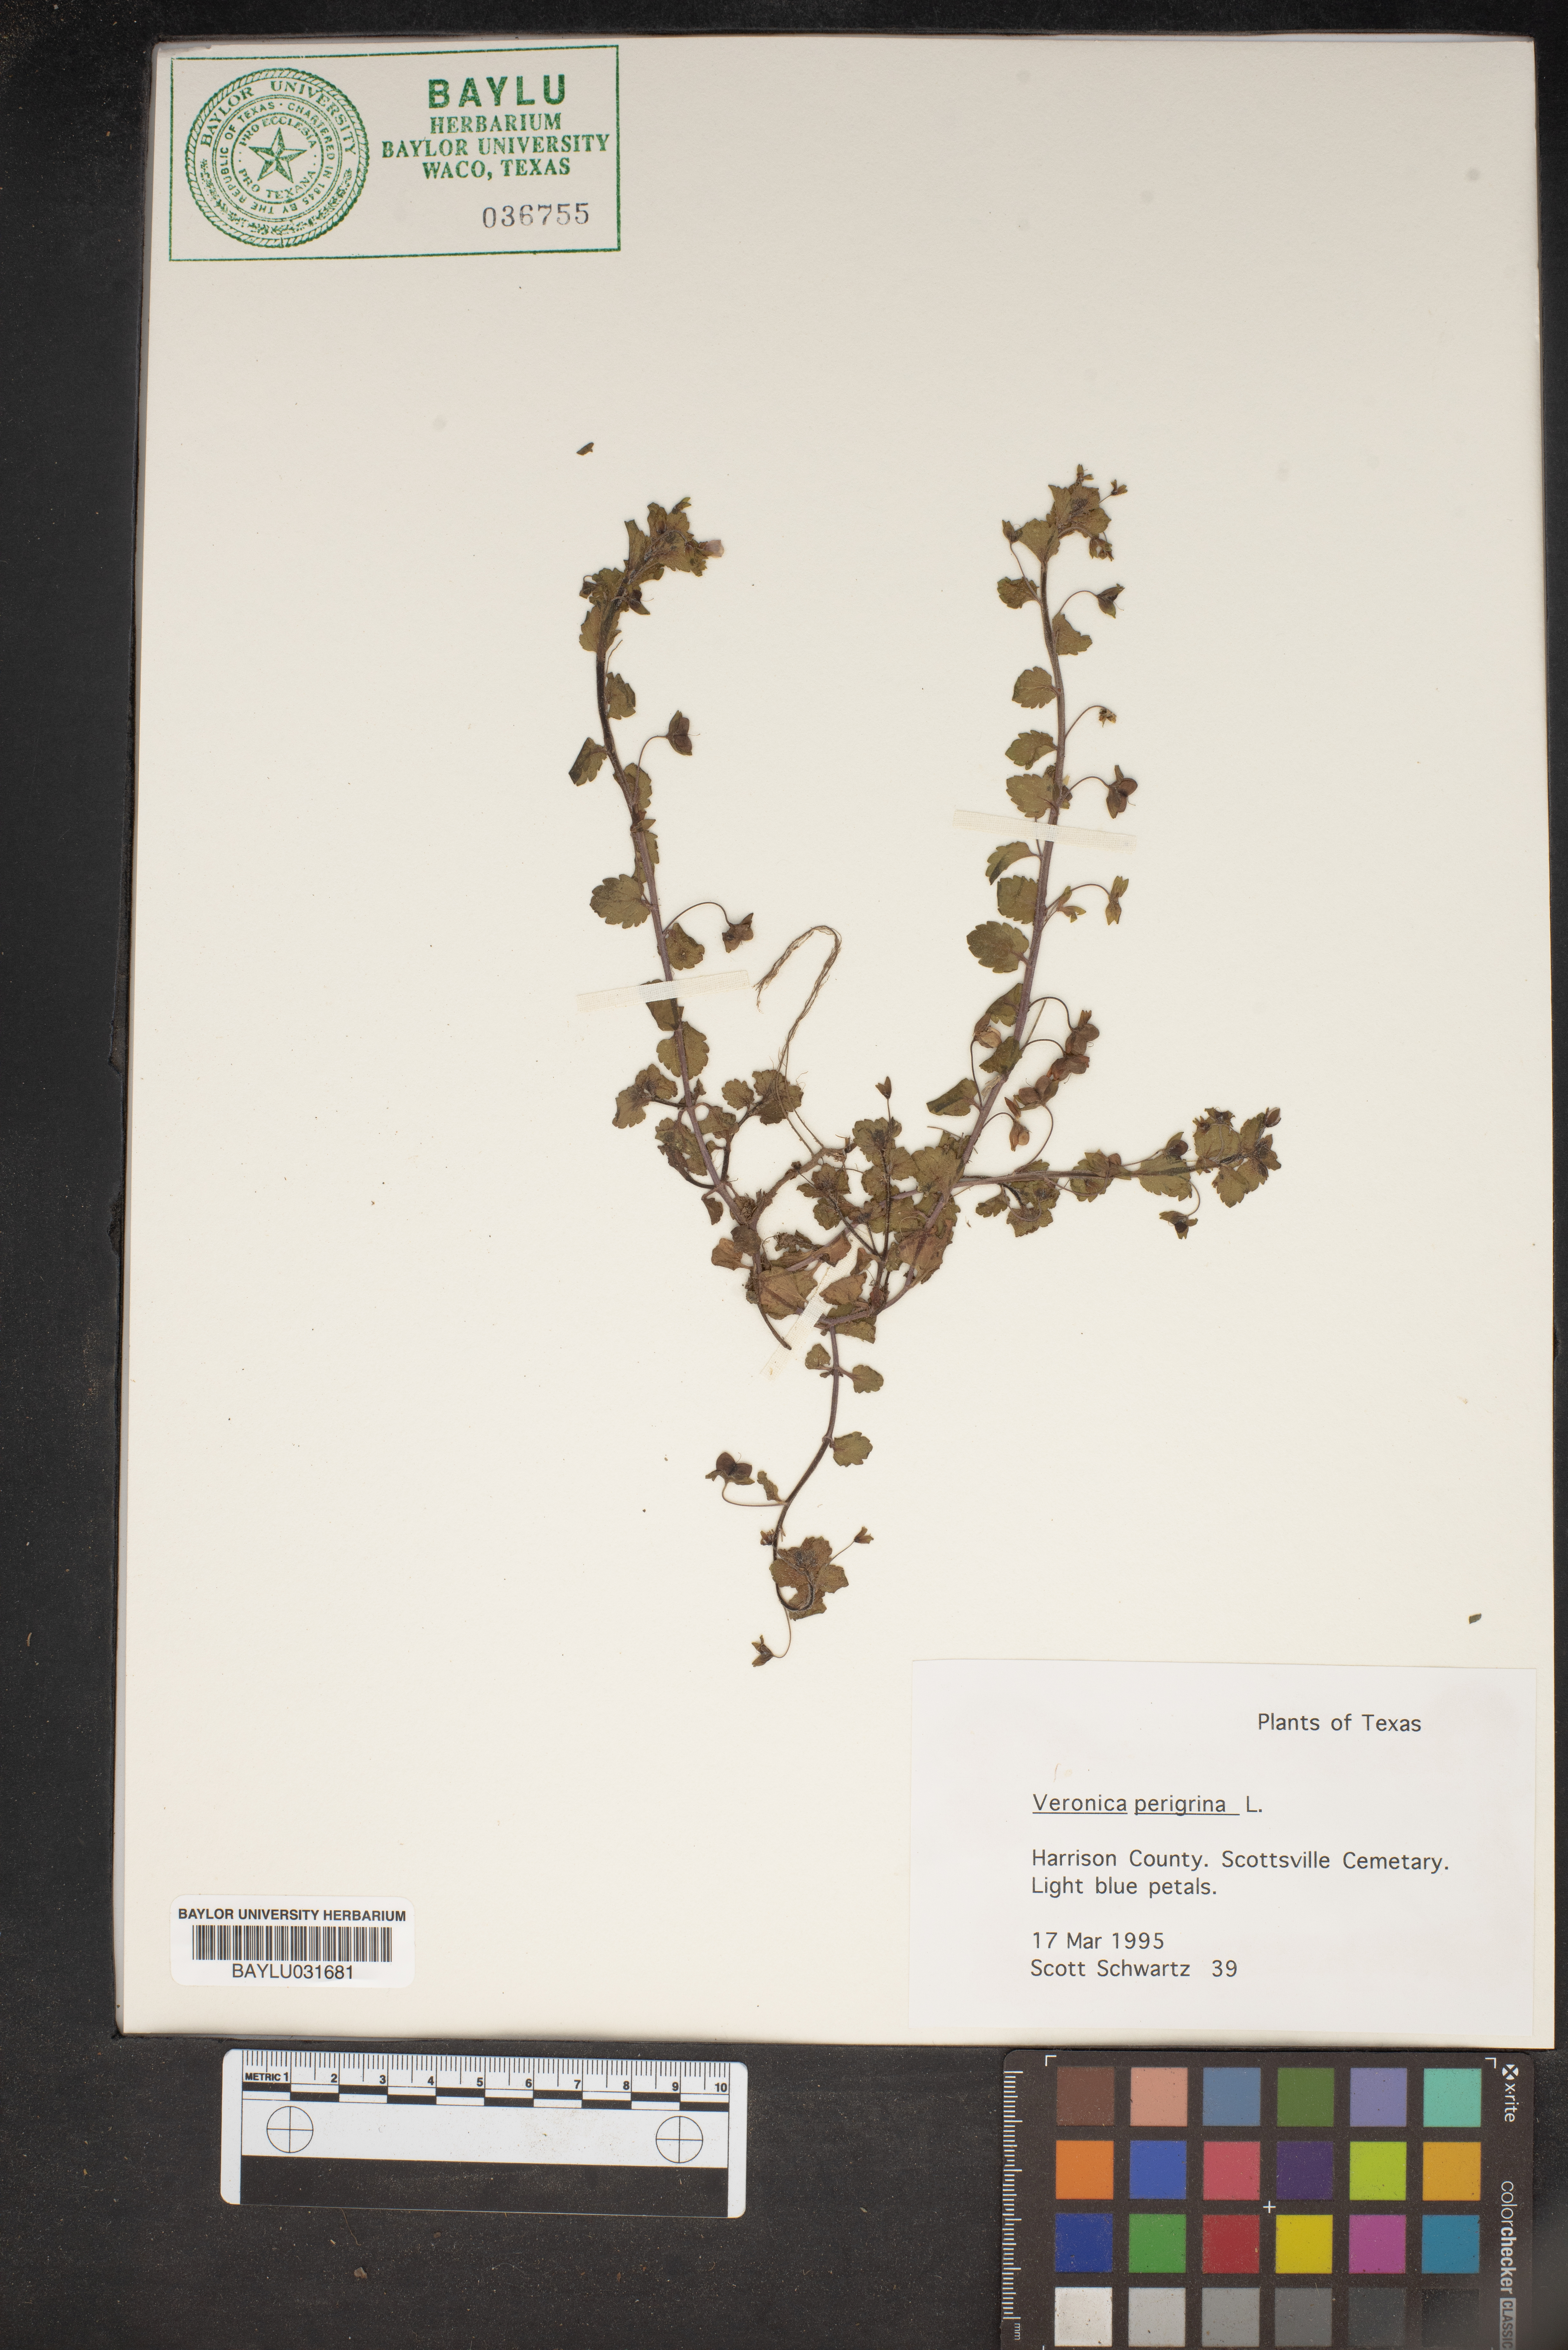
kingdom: Plantae
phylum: Tracheophyta
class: Magnoliopsida
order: Lamiales
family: Plantaginaceae
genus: Veronica
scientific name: Veronica peregrina
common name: Neckweed
